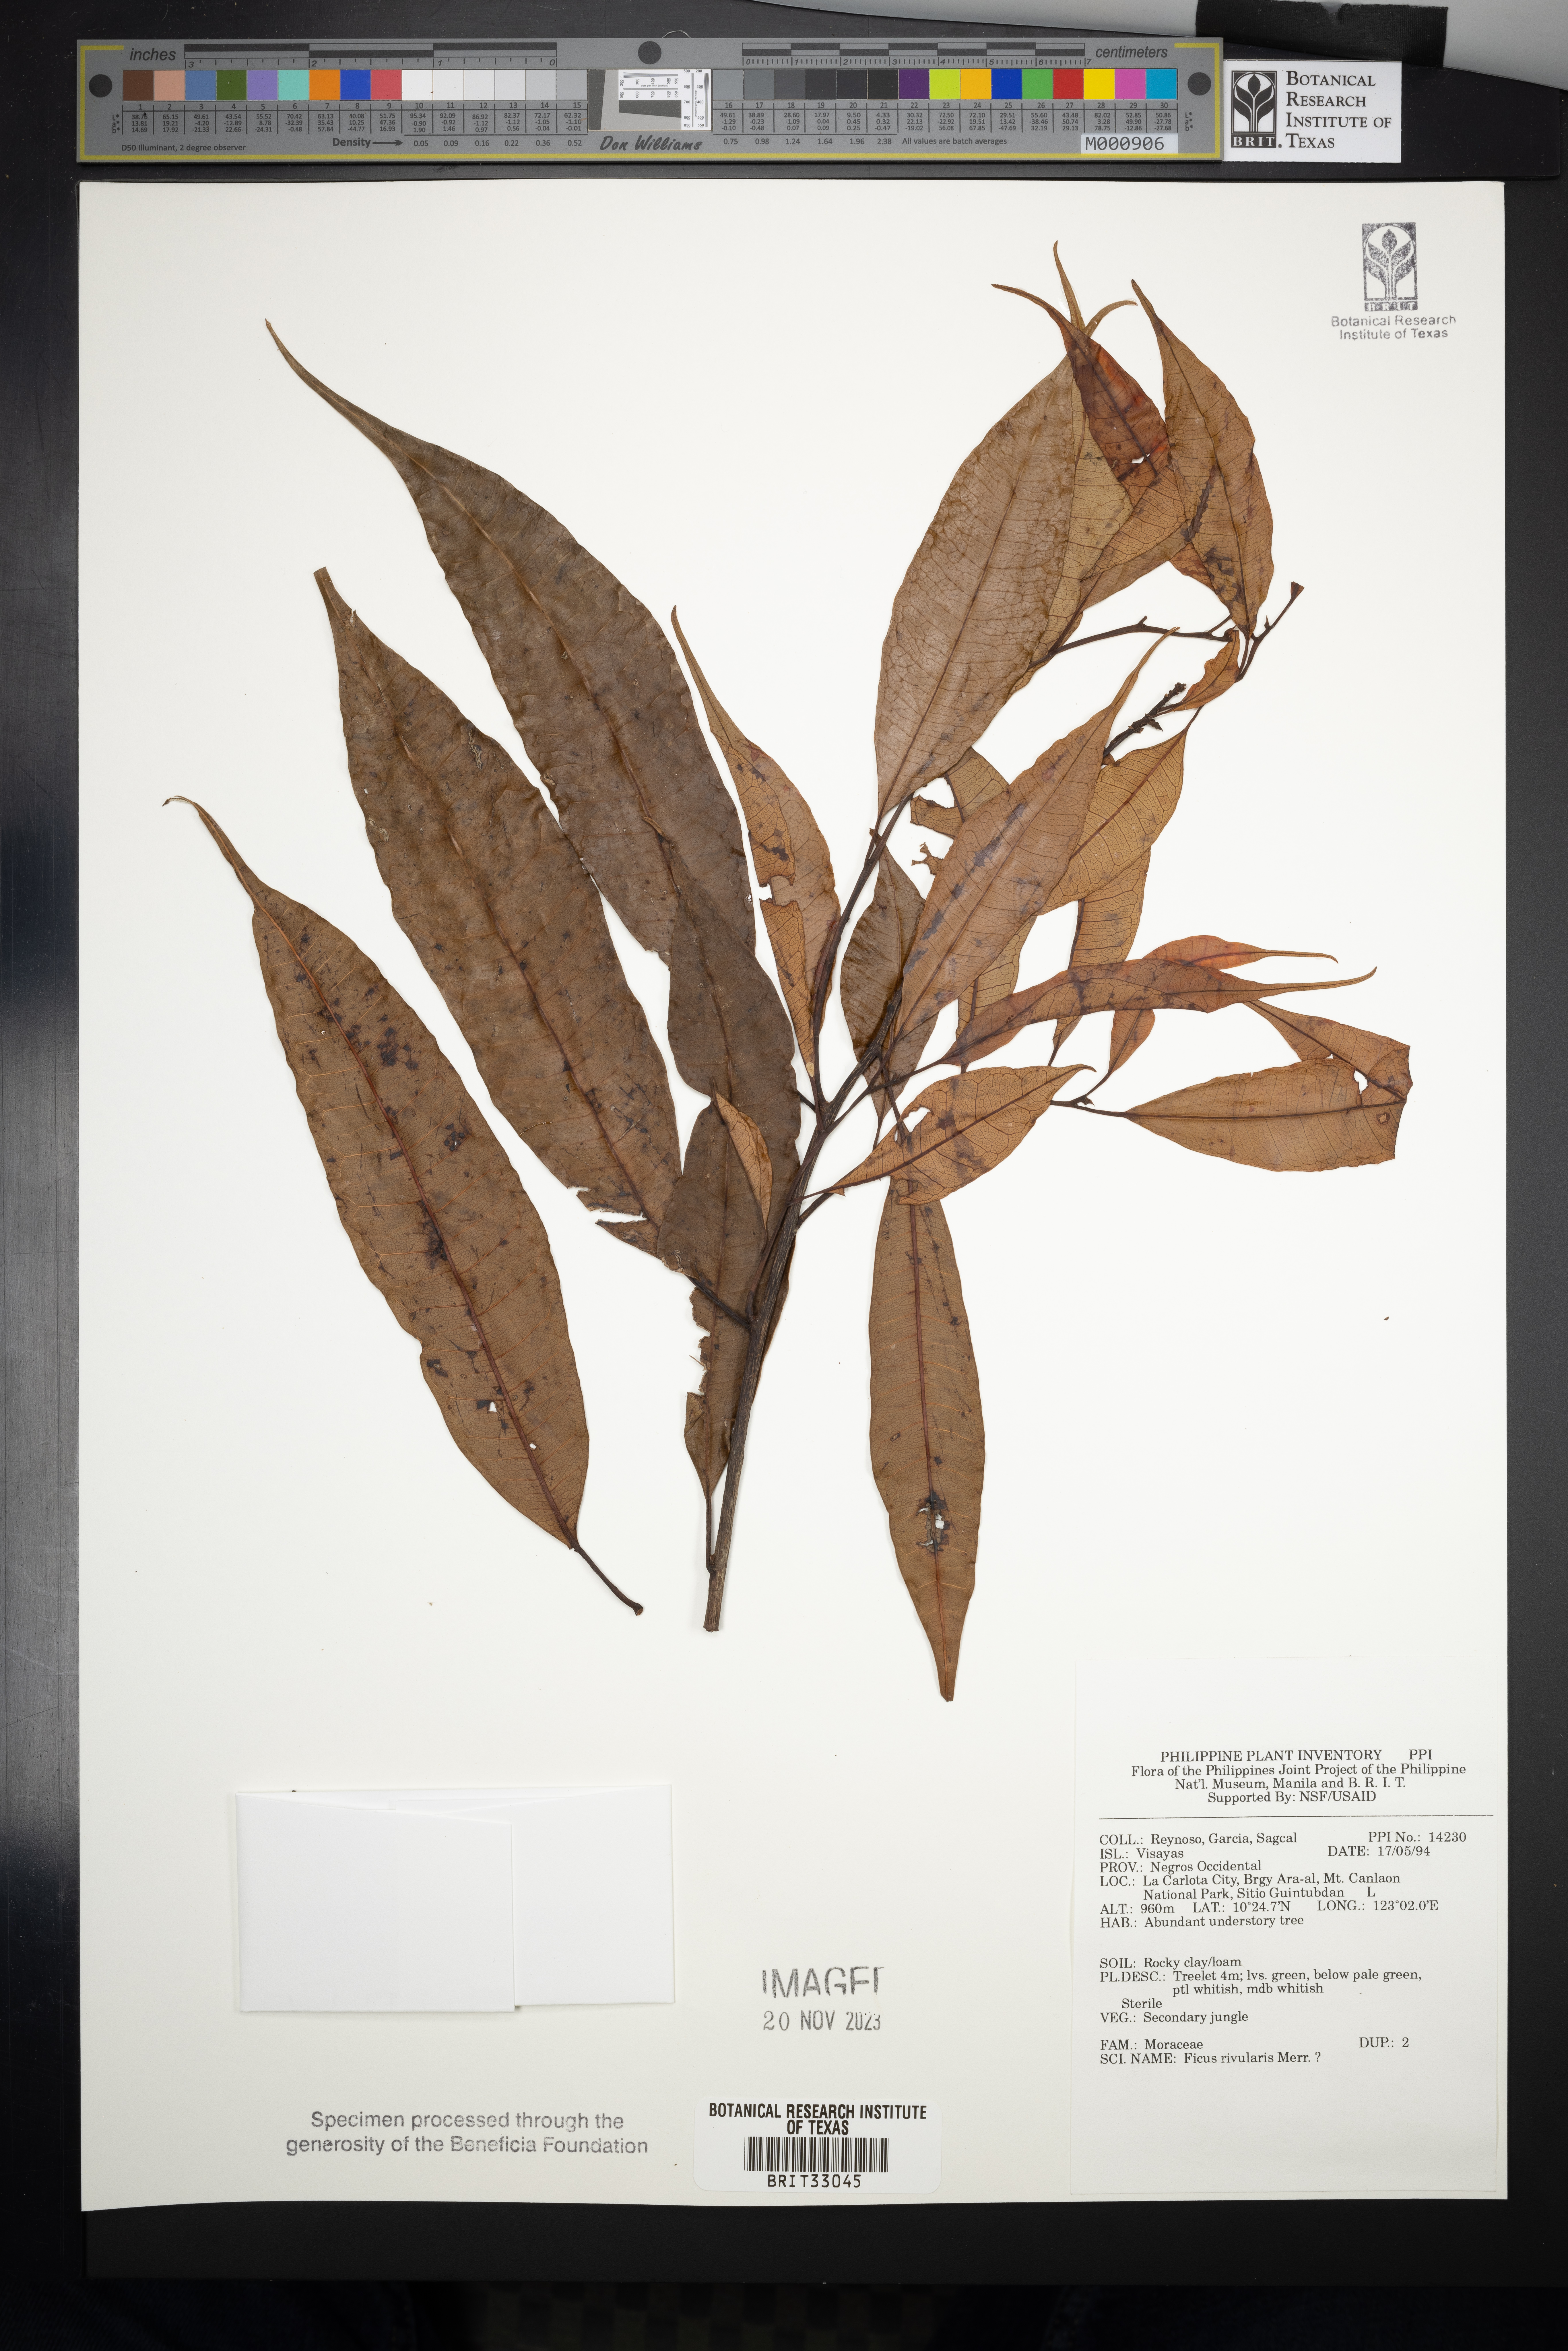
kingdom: Plantae
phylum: Tracheophyta
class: Magnoliopsida
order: Rosales
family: Moraceae
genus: Ficus
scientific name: Ficus rivularis
